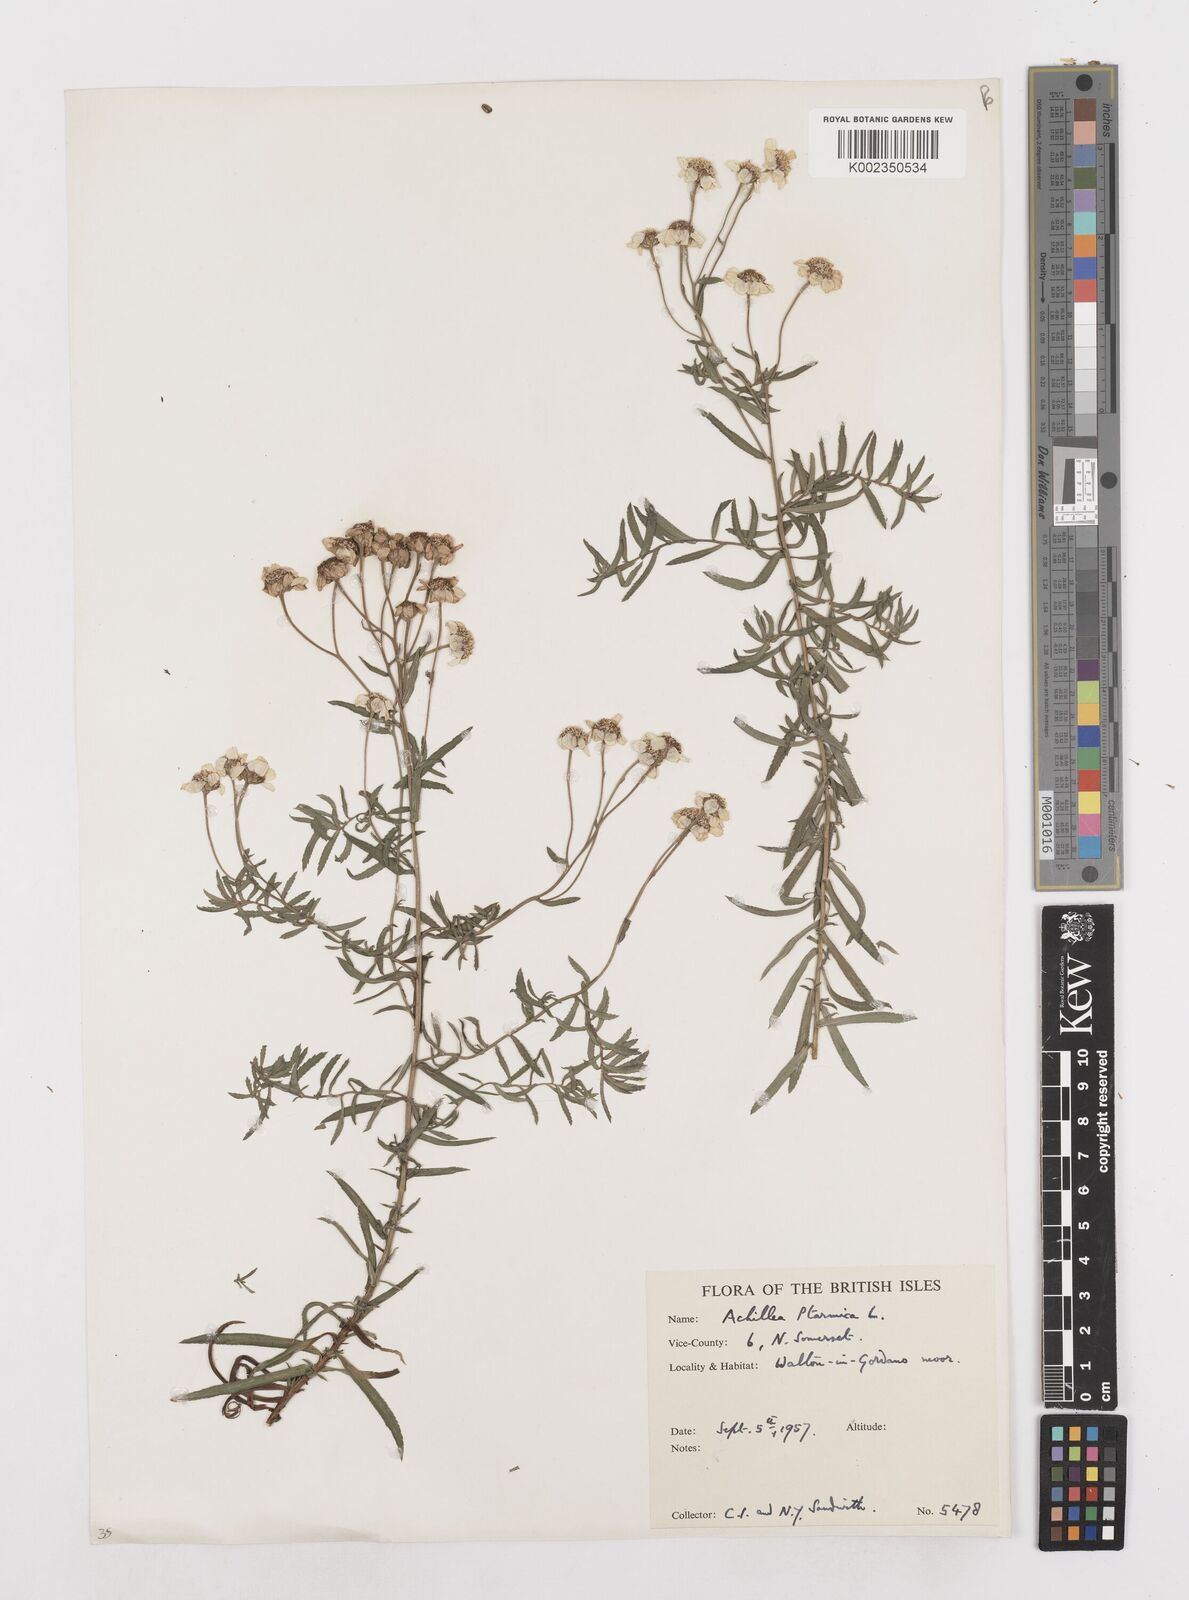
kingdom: Plantae
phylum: Tracheophyta
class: Magnoliopsida
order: Asterales
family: Asteraceae
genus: Achillea
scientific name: Achillea ptarmica
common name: Sneezeweed
